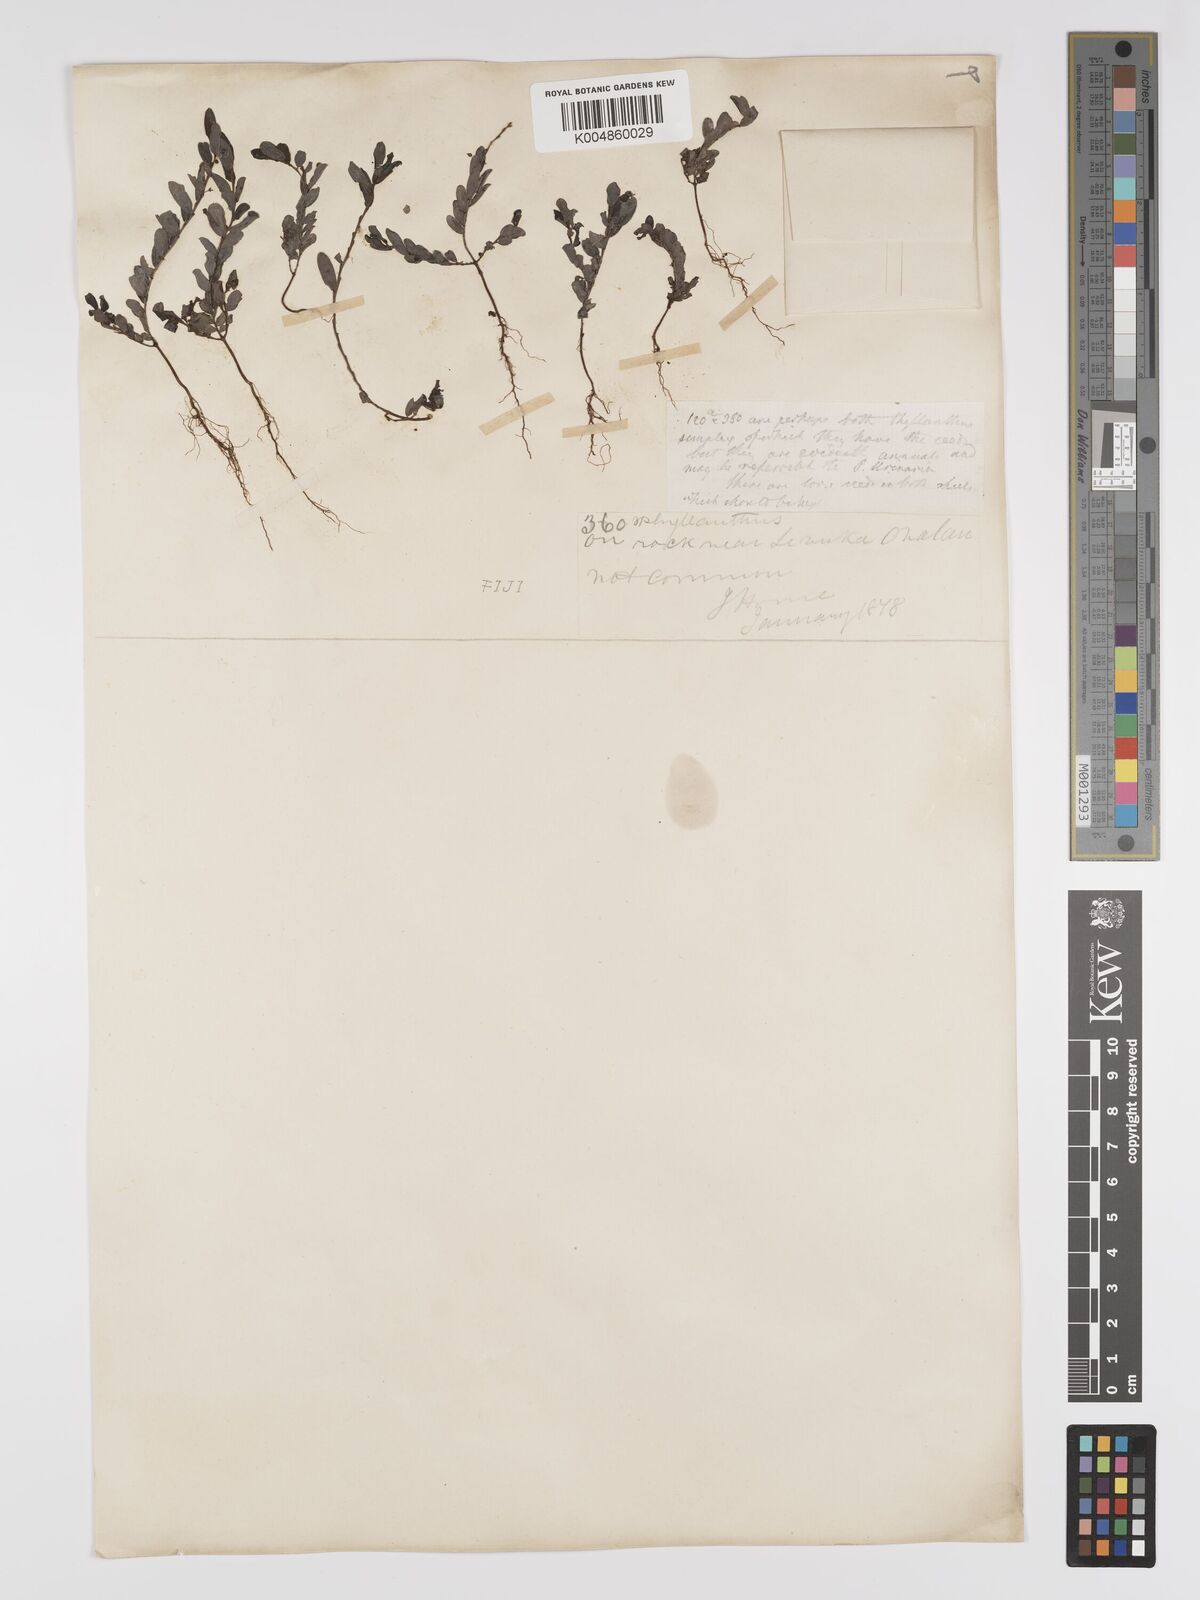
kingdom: Plantae
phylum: Tracheophyta
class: Magnoliopsida
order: Malpighiales
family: Phyllanthaceae
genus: Phyllanthus
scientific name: Phyllanthus
